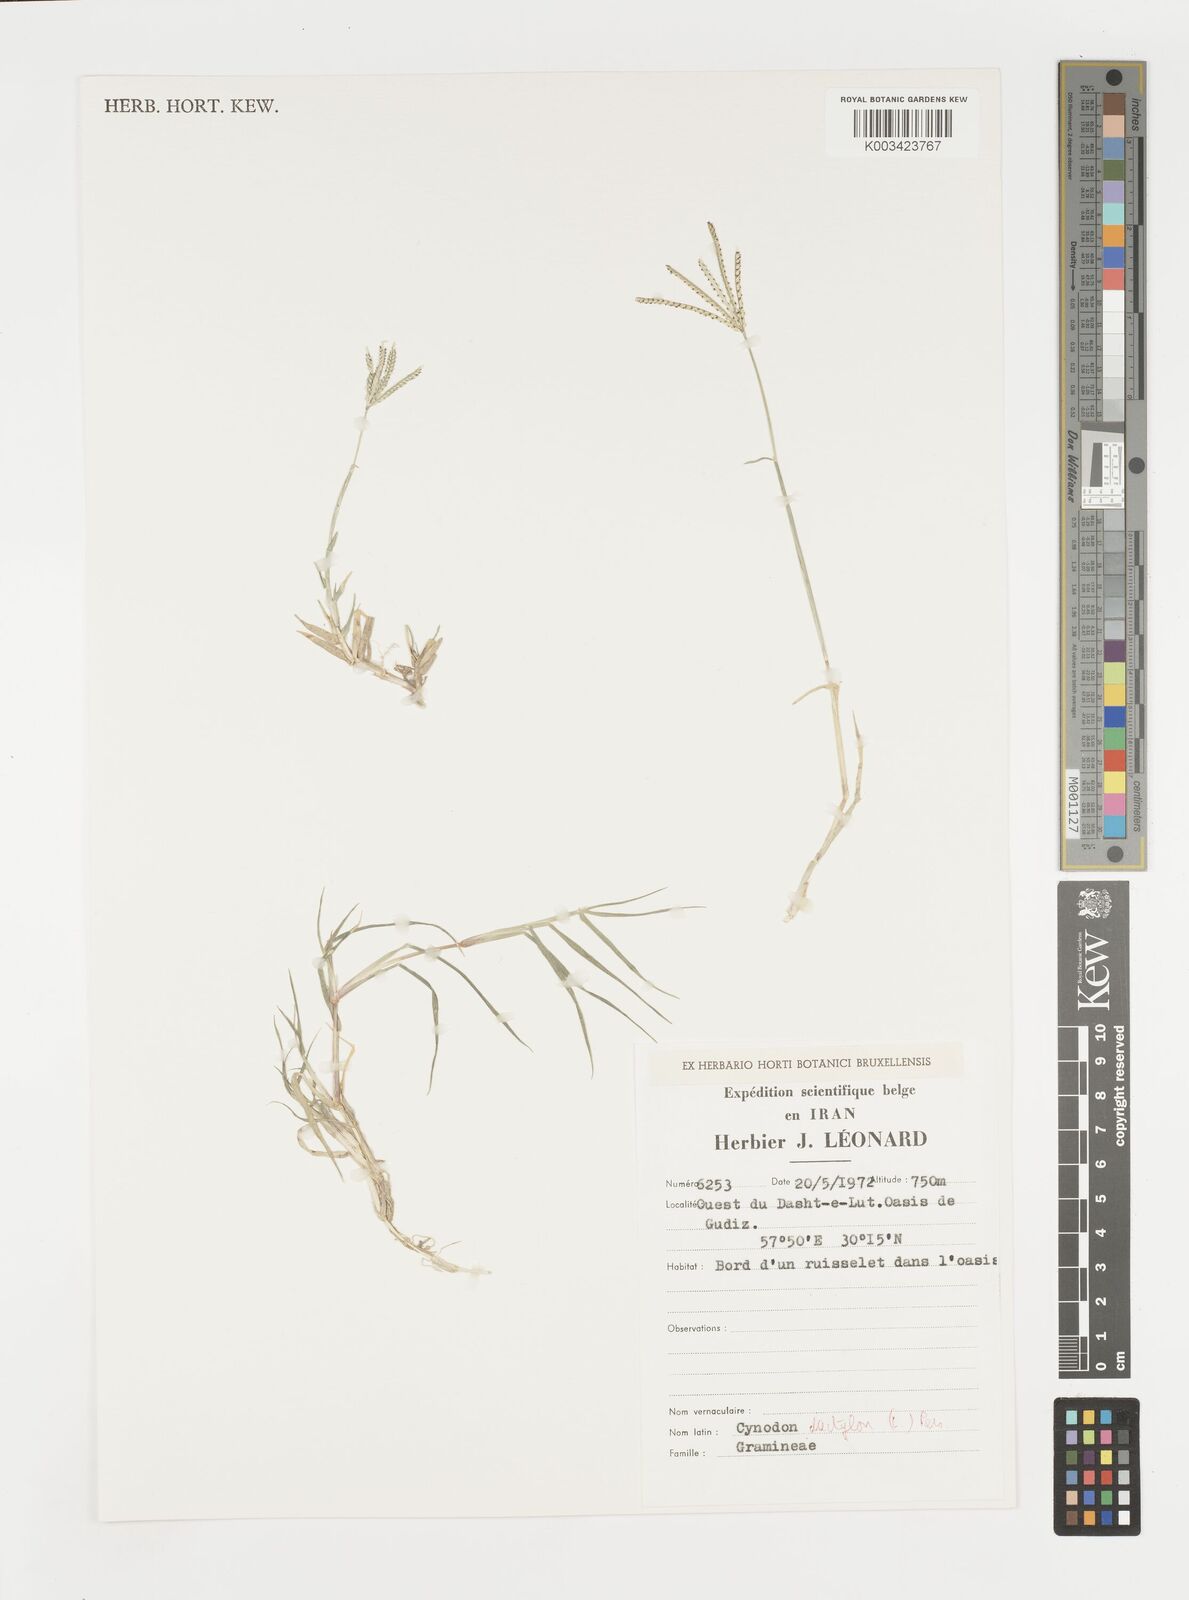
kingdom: Plantae
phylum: Tracheophyta
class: Liliopsida
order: Poales
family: Poaceae
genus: Cynodon
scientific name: Cynodon dactylon
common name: Bermuda grass
